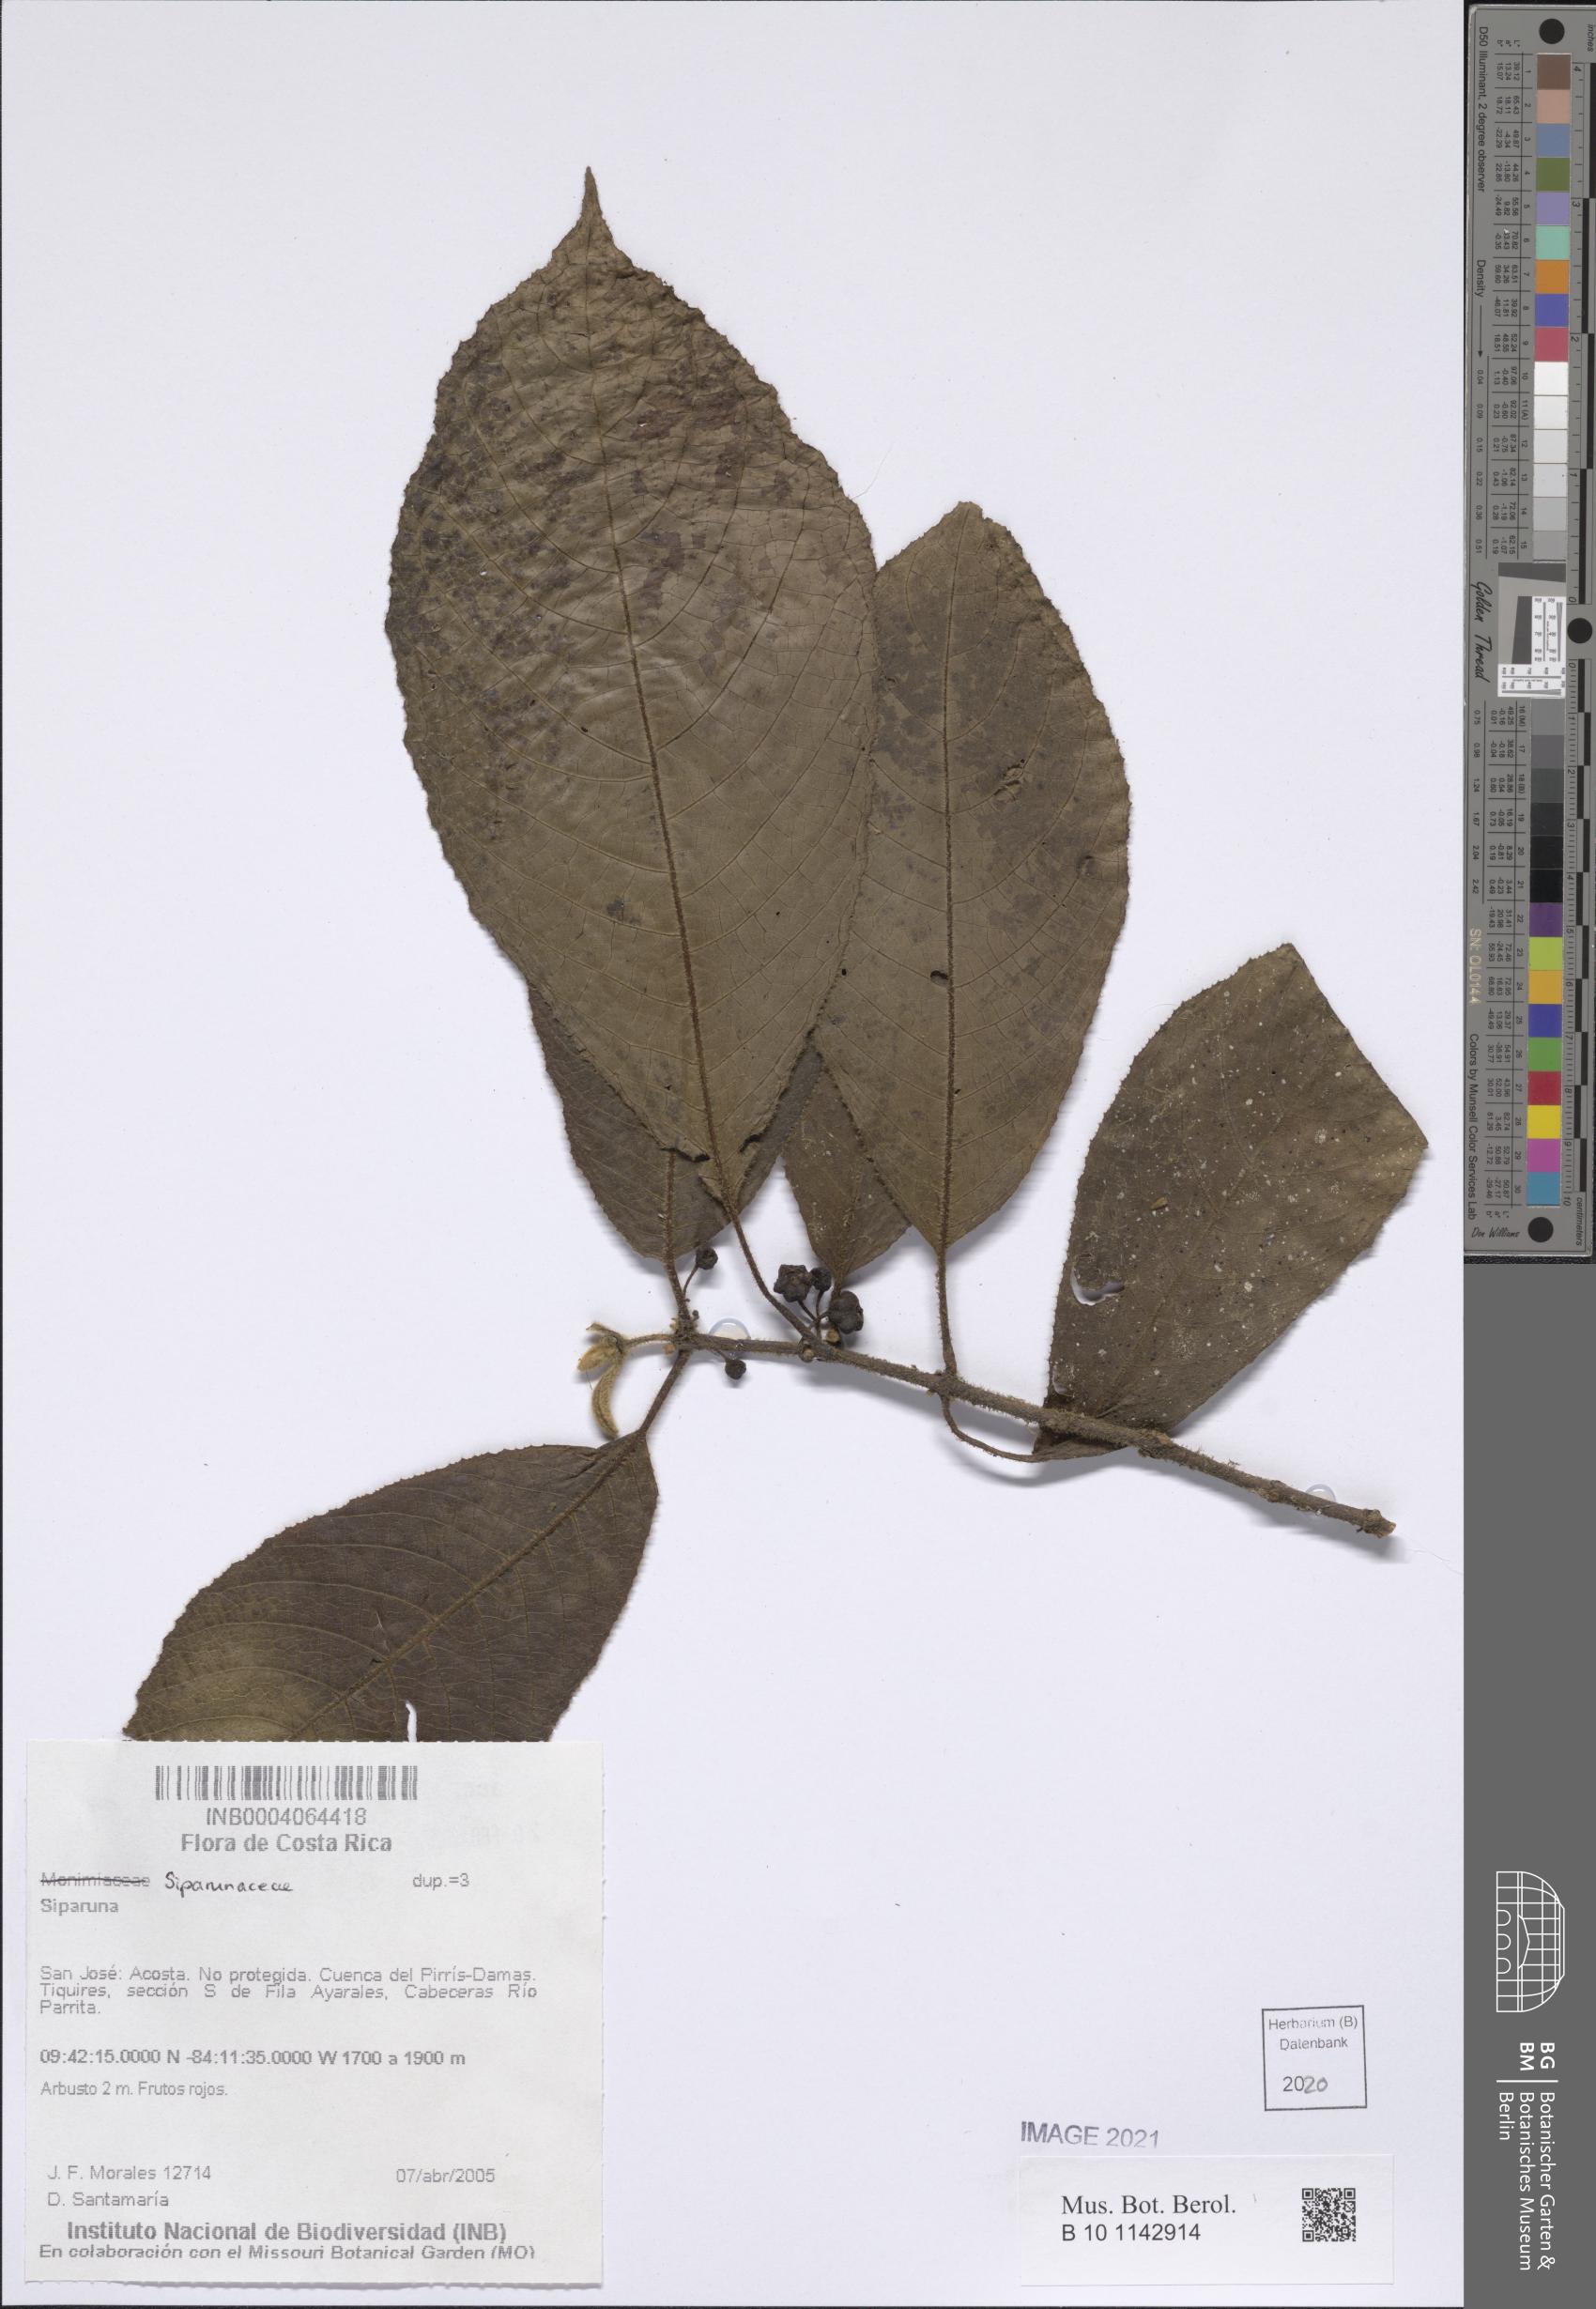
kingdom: Plantae
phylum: Tracheophyta
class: Magnoliopsida
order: Laurales
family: Siparunaceae
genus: Siparuna
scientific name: Siparuna
